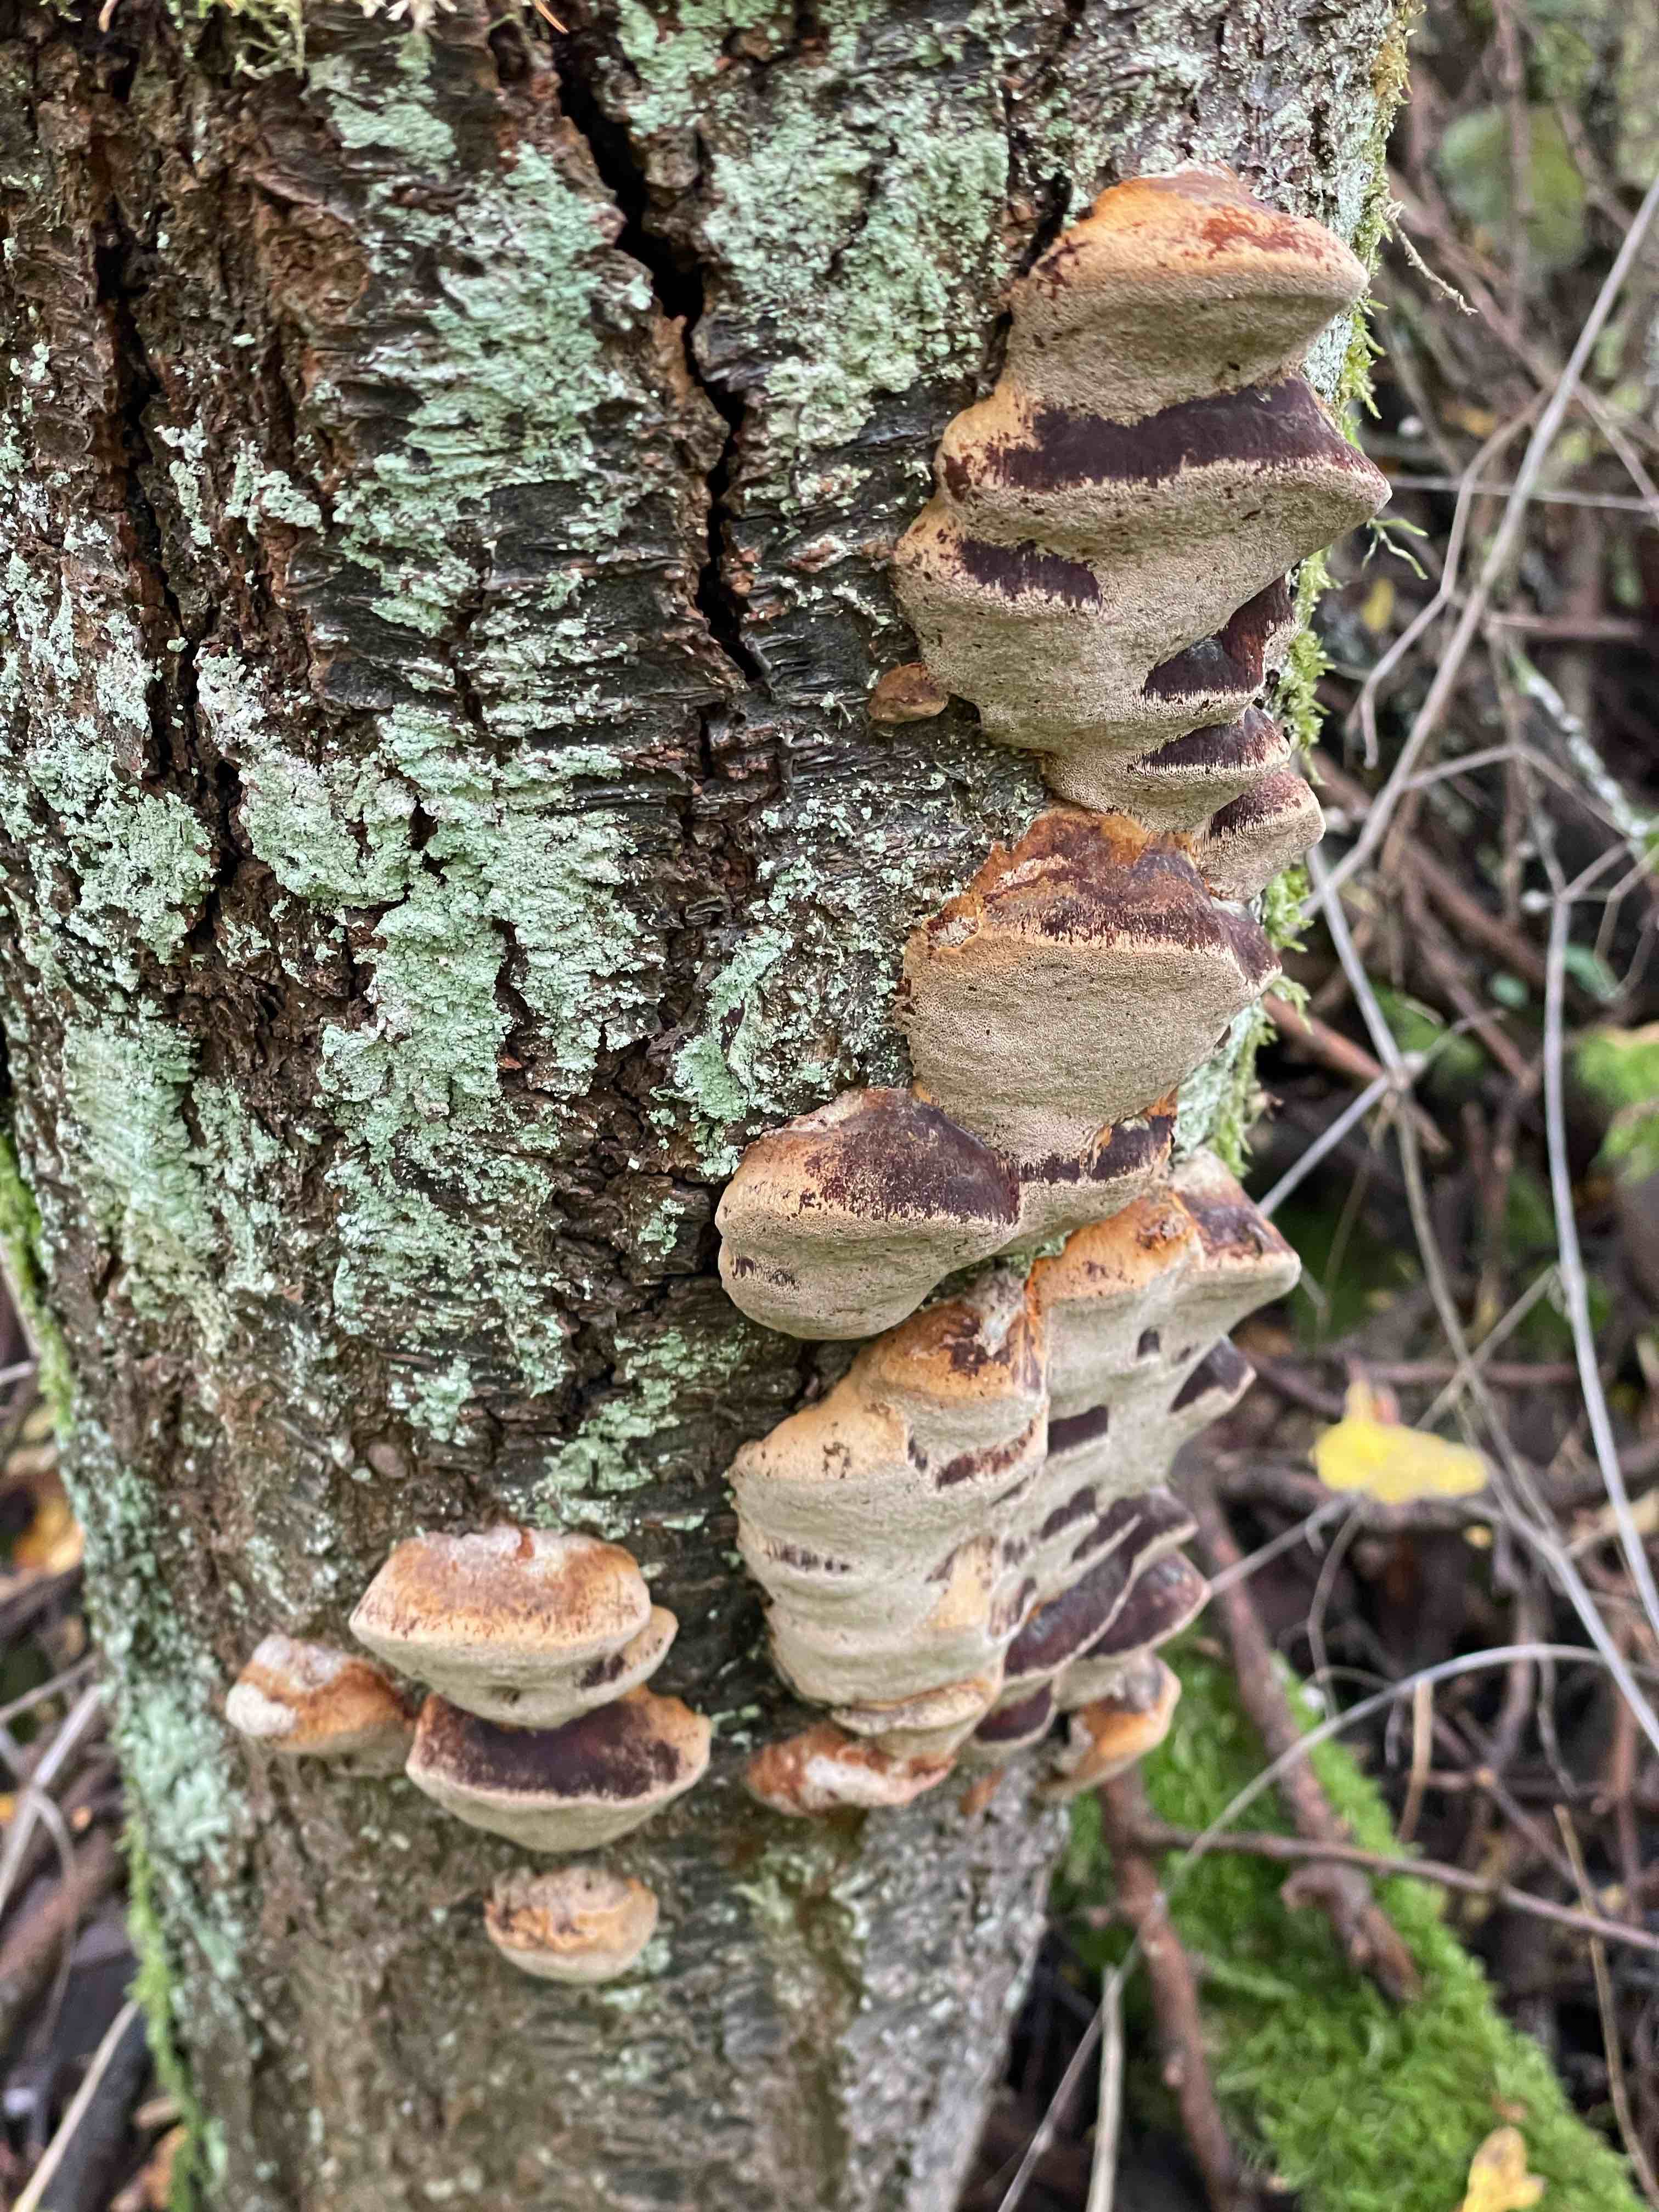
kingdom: Fungi
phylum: Basidiomycota
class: Agaricomycetes
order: Hymenochaetales
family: Hymenochaetaceae
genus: Phellinus
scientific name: Phellinus pomaceus
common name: blomme-ildporesvamp
